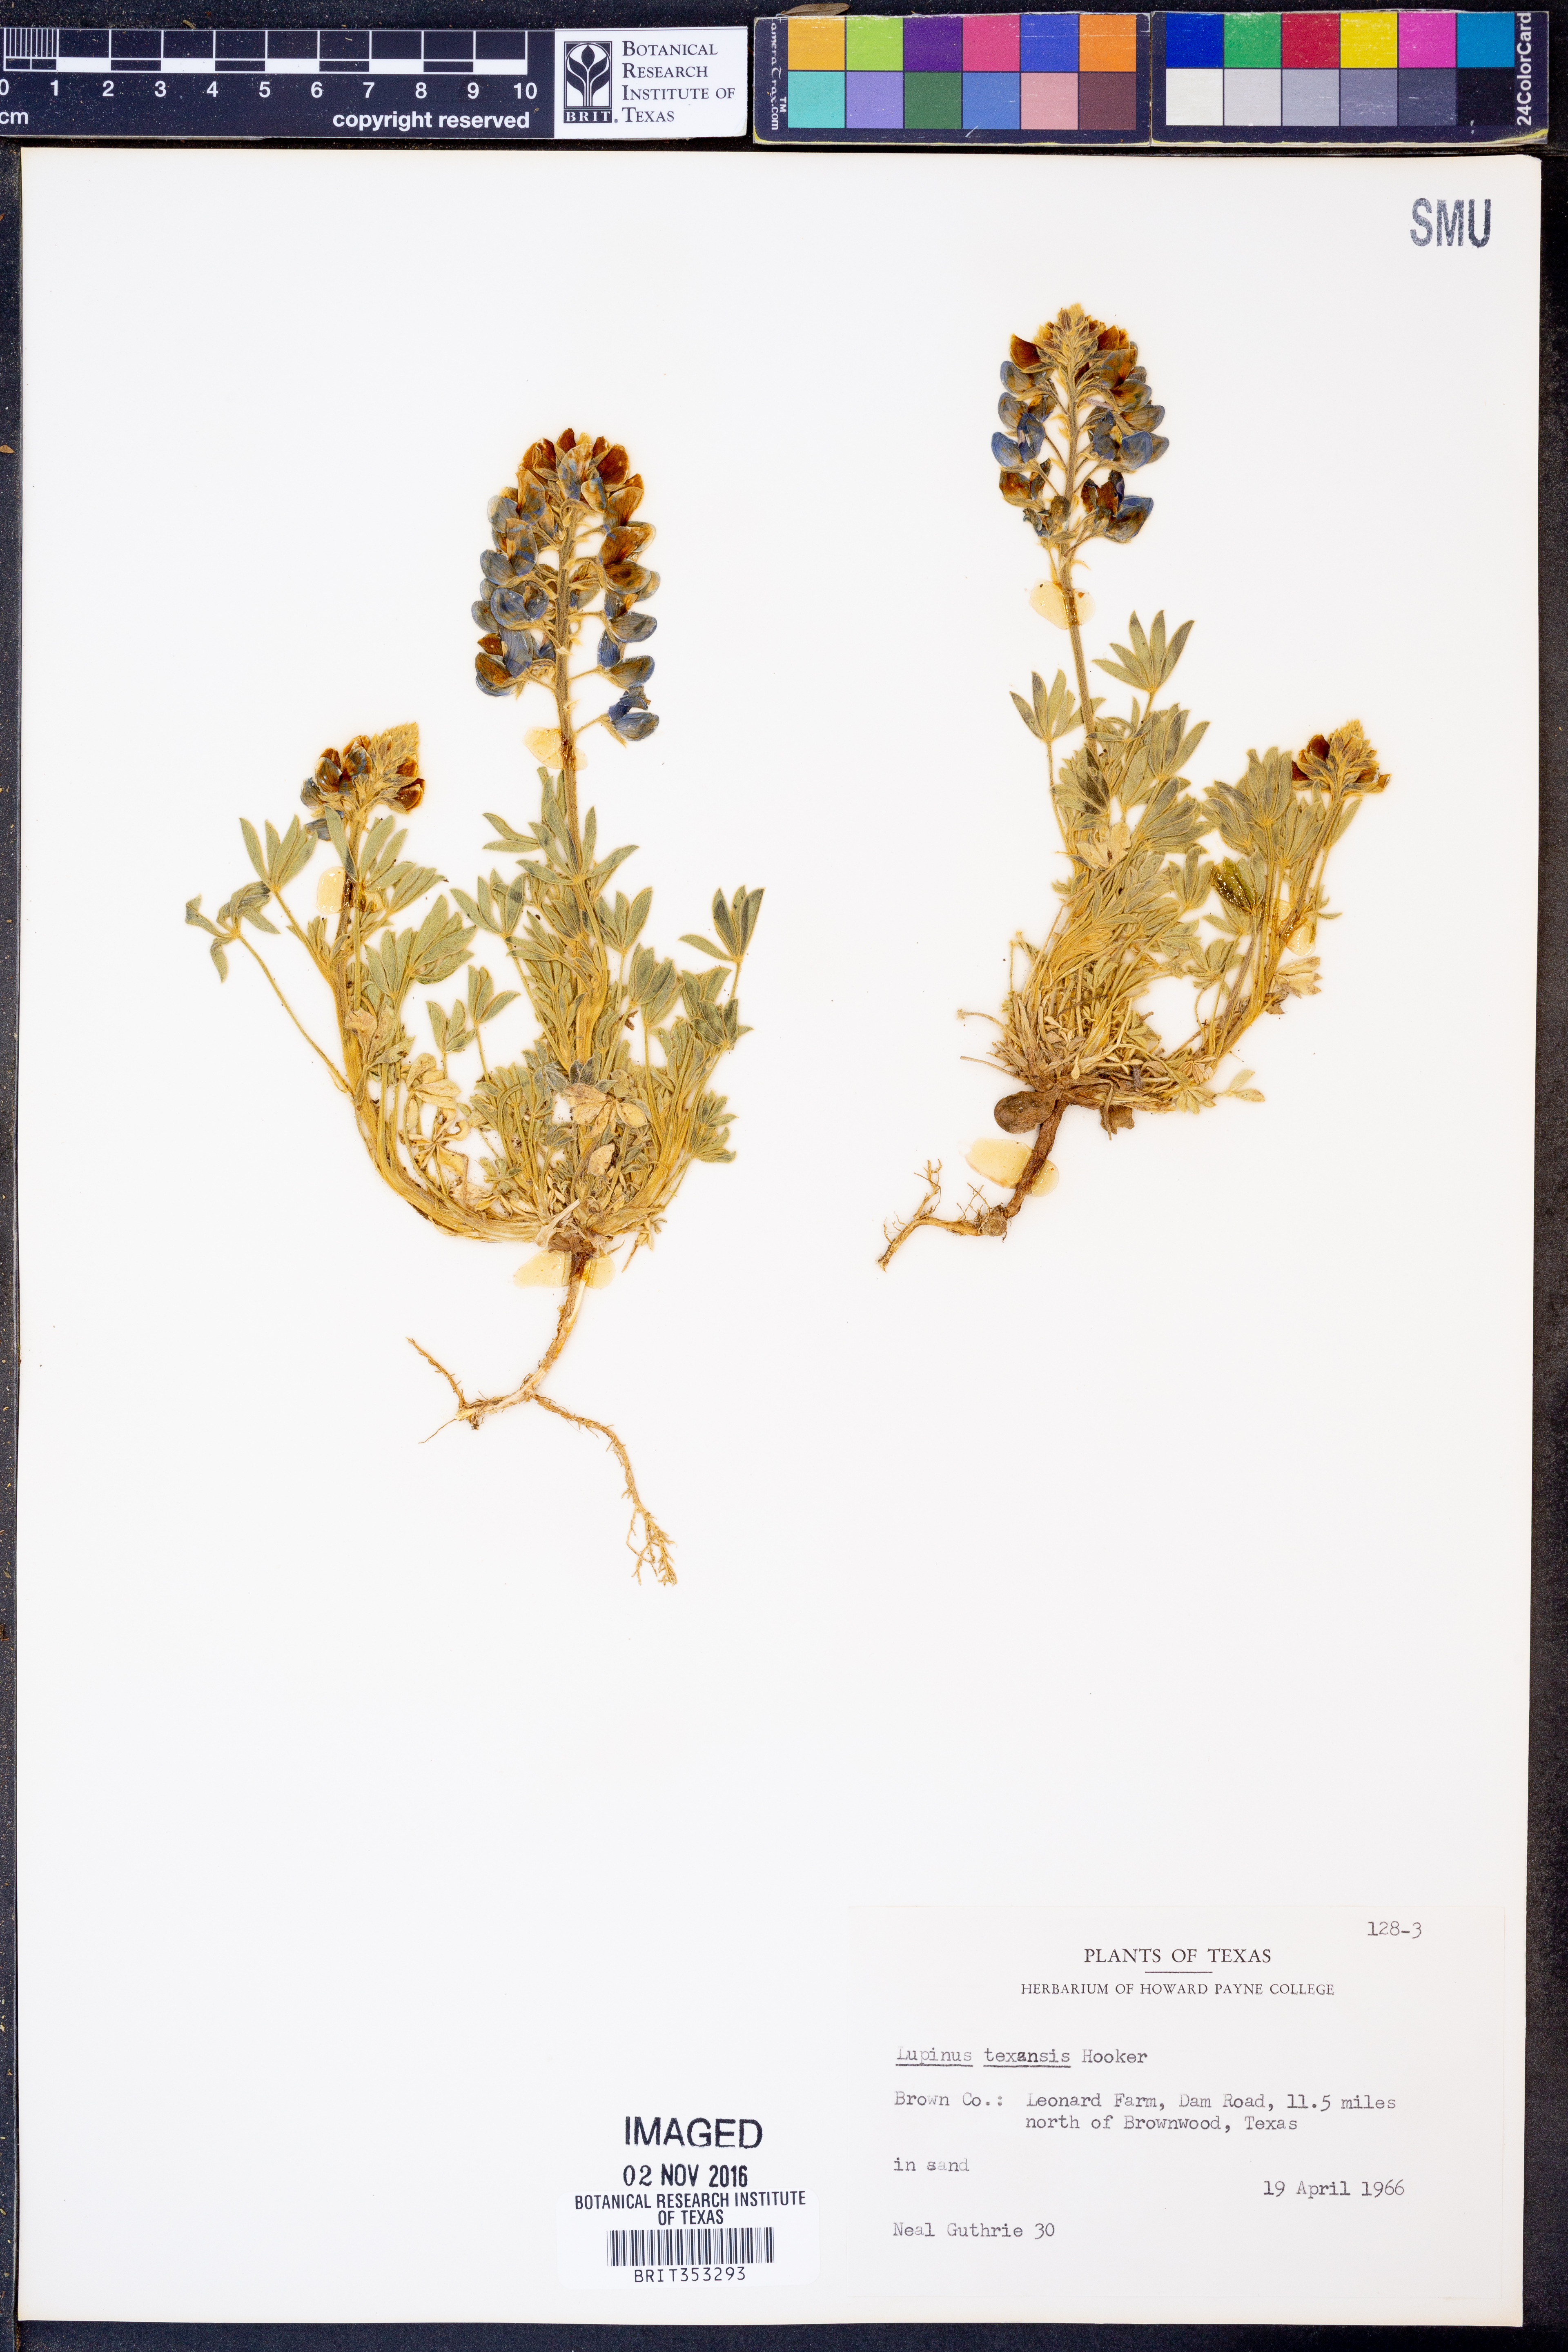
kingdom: Plantae
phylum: Tracheophyta
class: Magnoliopsida
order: Fabales
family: Fabaceae
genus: Lupinus
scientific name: Lupinus texensis
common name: Texas bluebonnet
